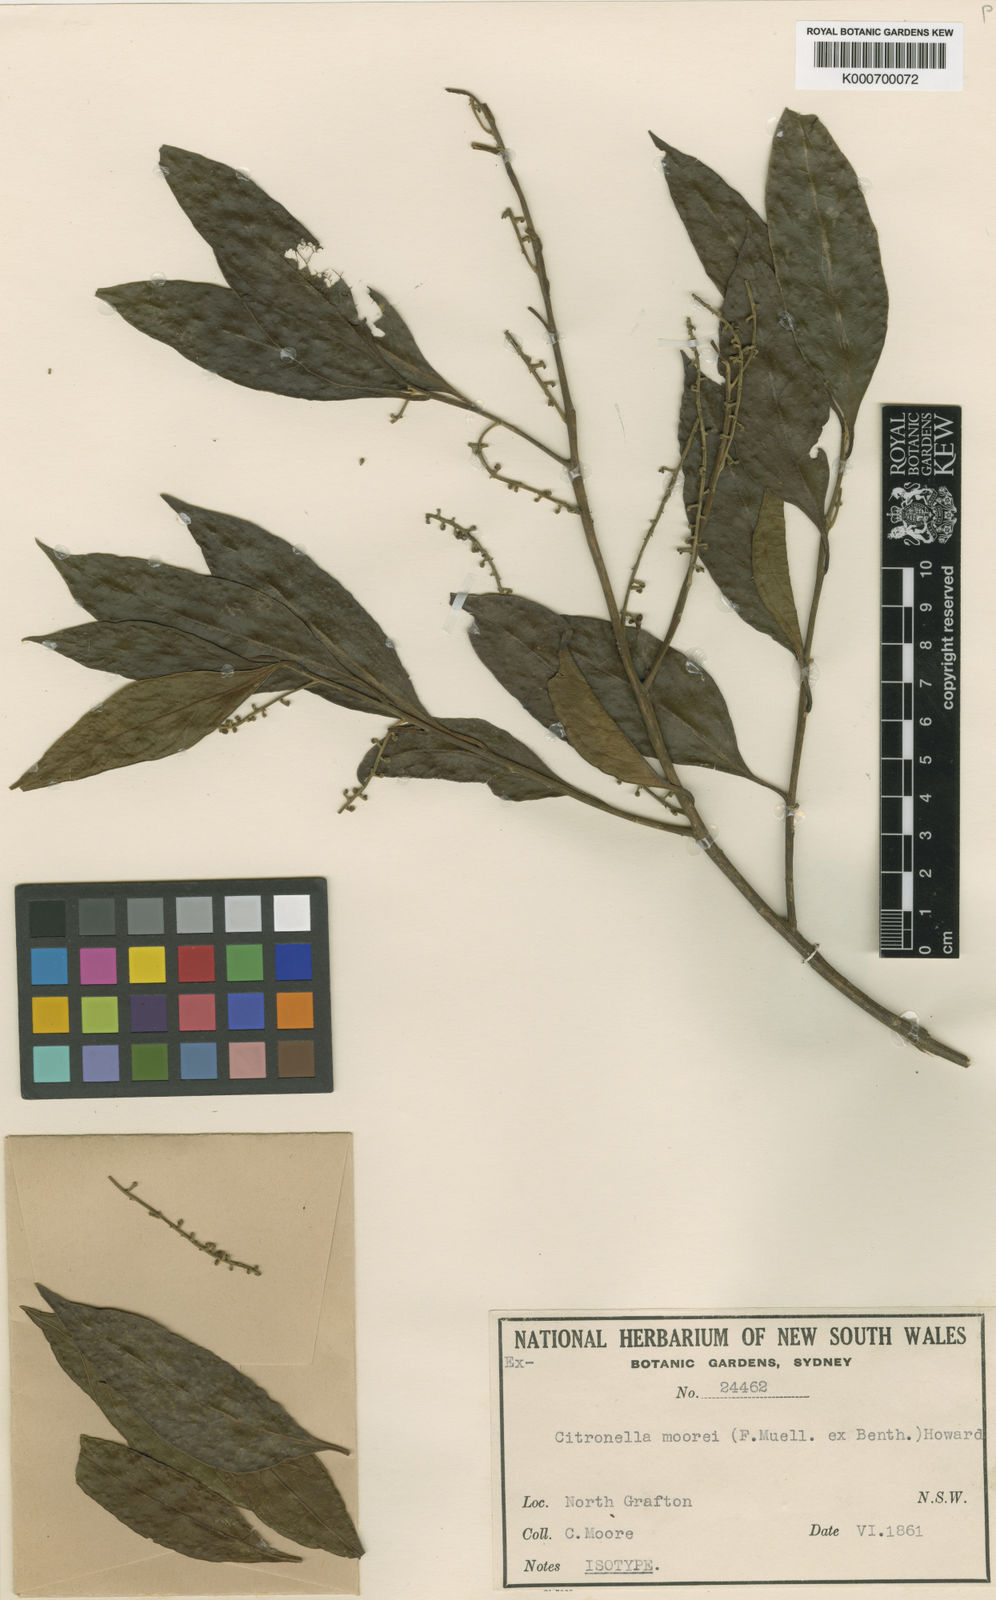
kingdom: Plantae
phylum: Tracheophyta
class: Magnoliopsida
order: Cardiopteridales
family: Cardiopteridaceae
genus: Citronella
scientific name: Citronella moorei
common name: Churnwood
